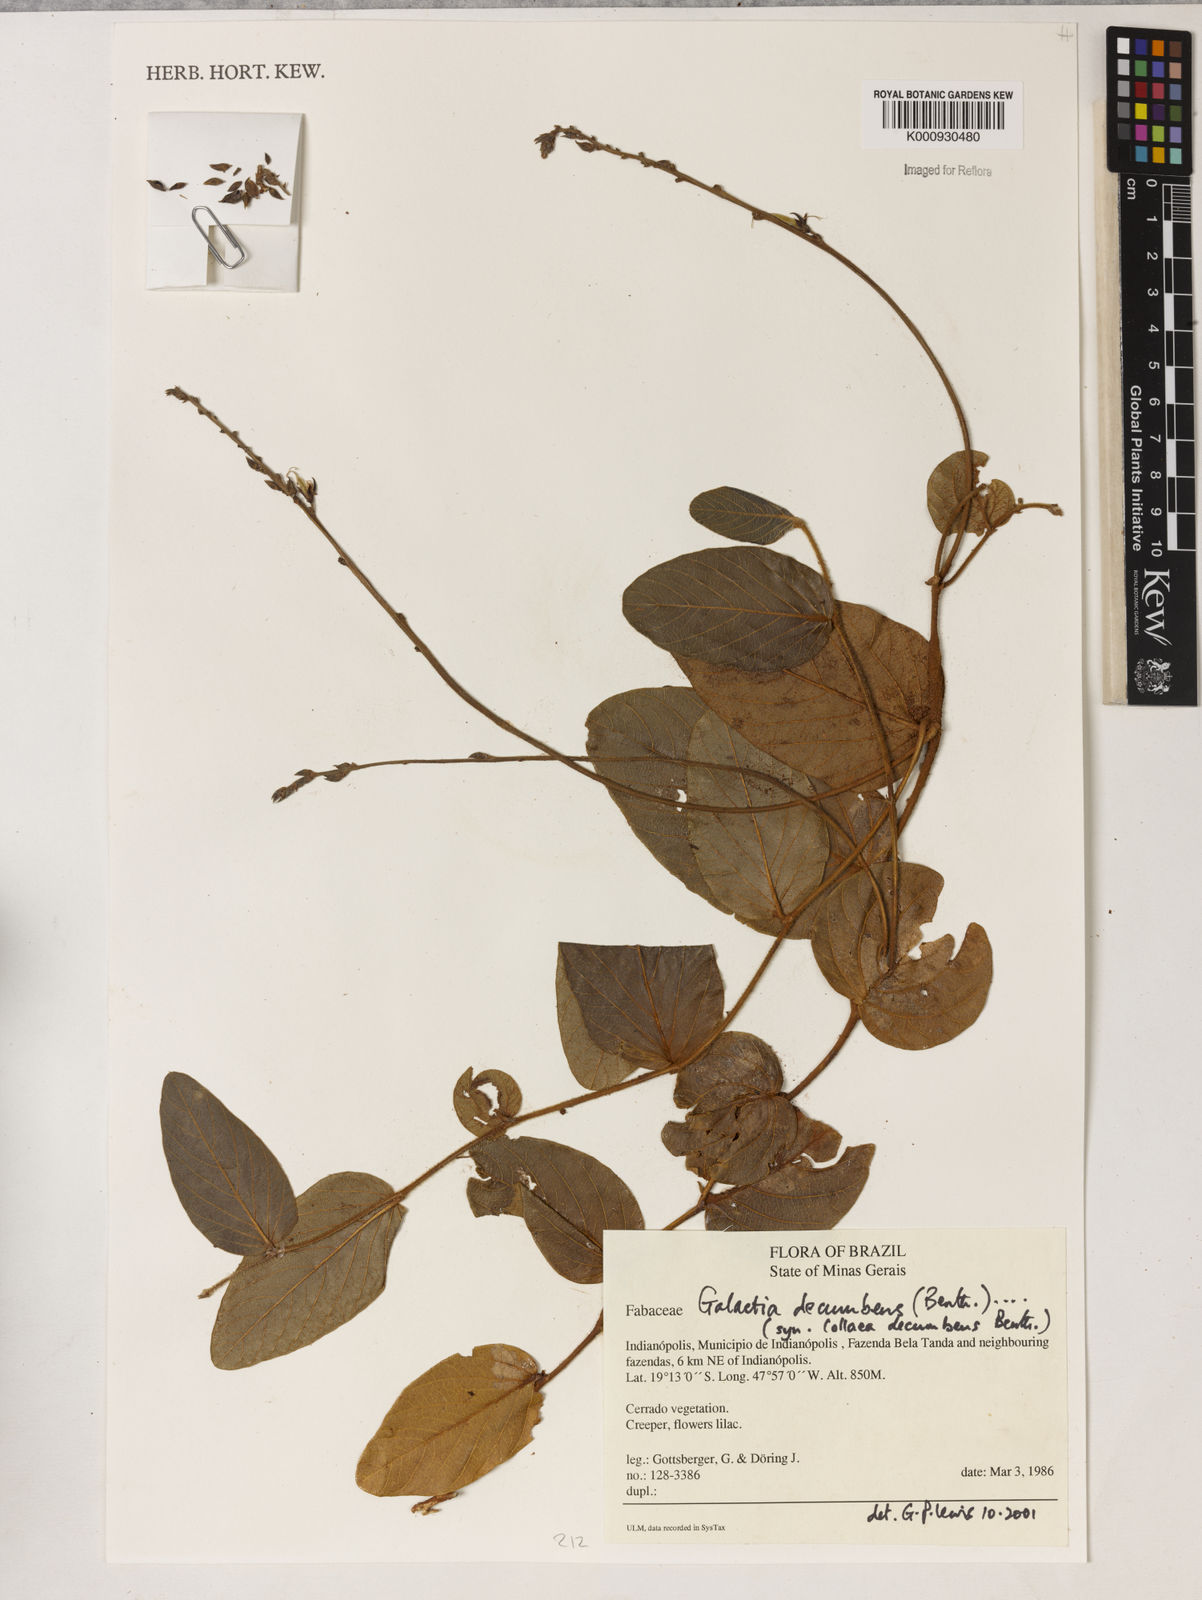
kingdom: Plantae
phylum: Tracheophyta
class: Magnoliopsida
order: Fabales
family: Fabaceae
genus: Cerradicola
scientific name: Cerradicola decumbens
